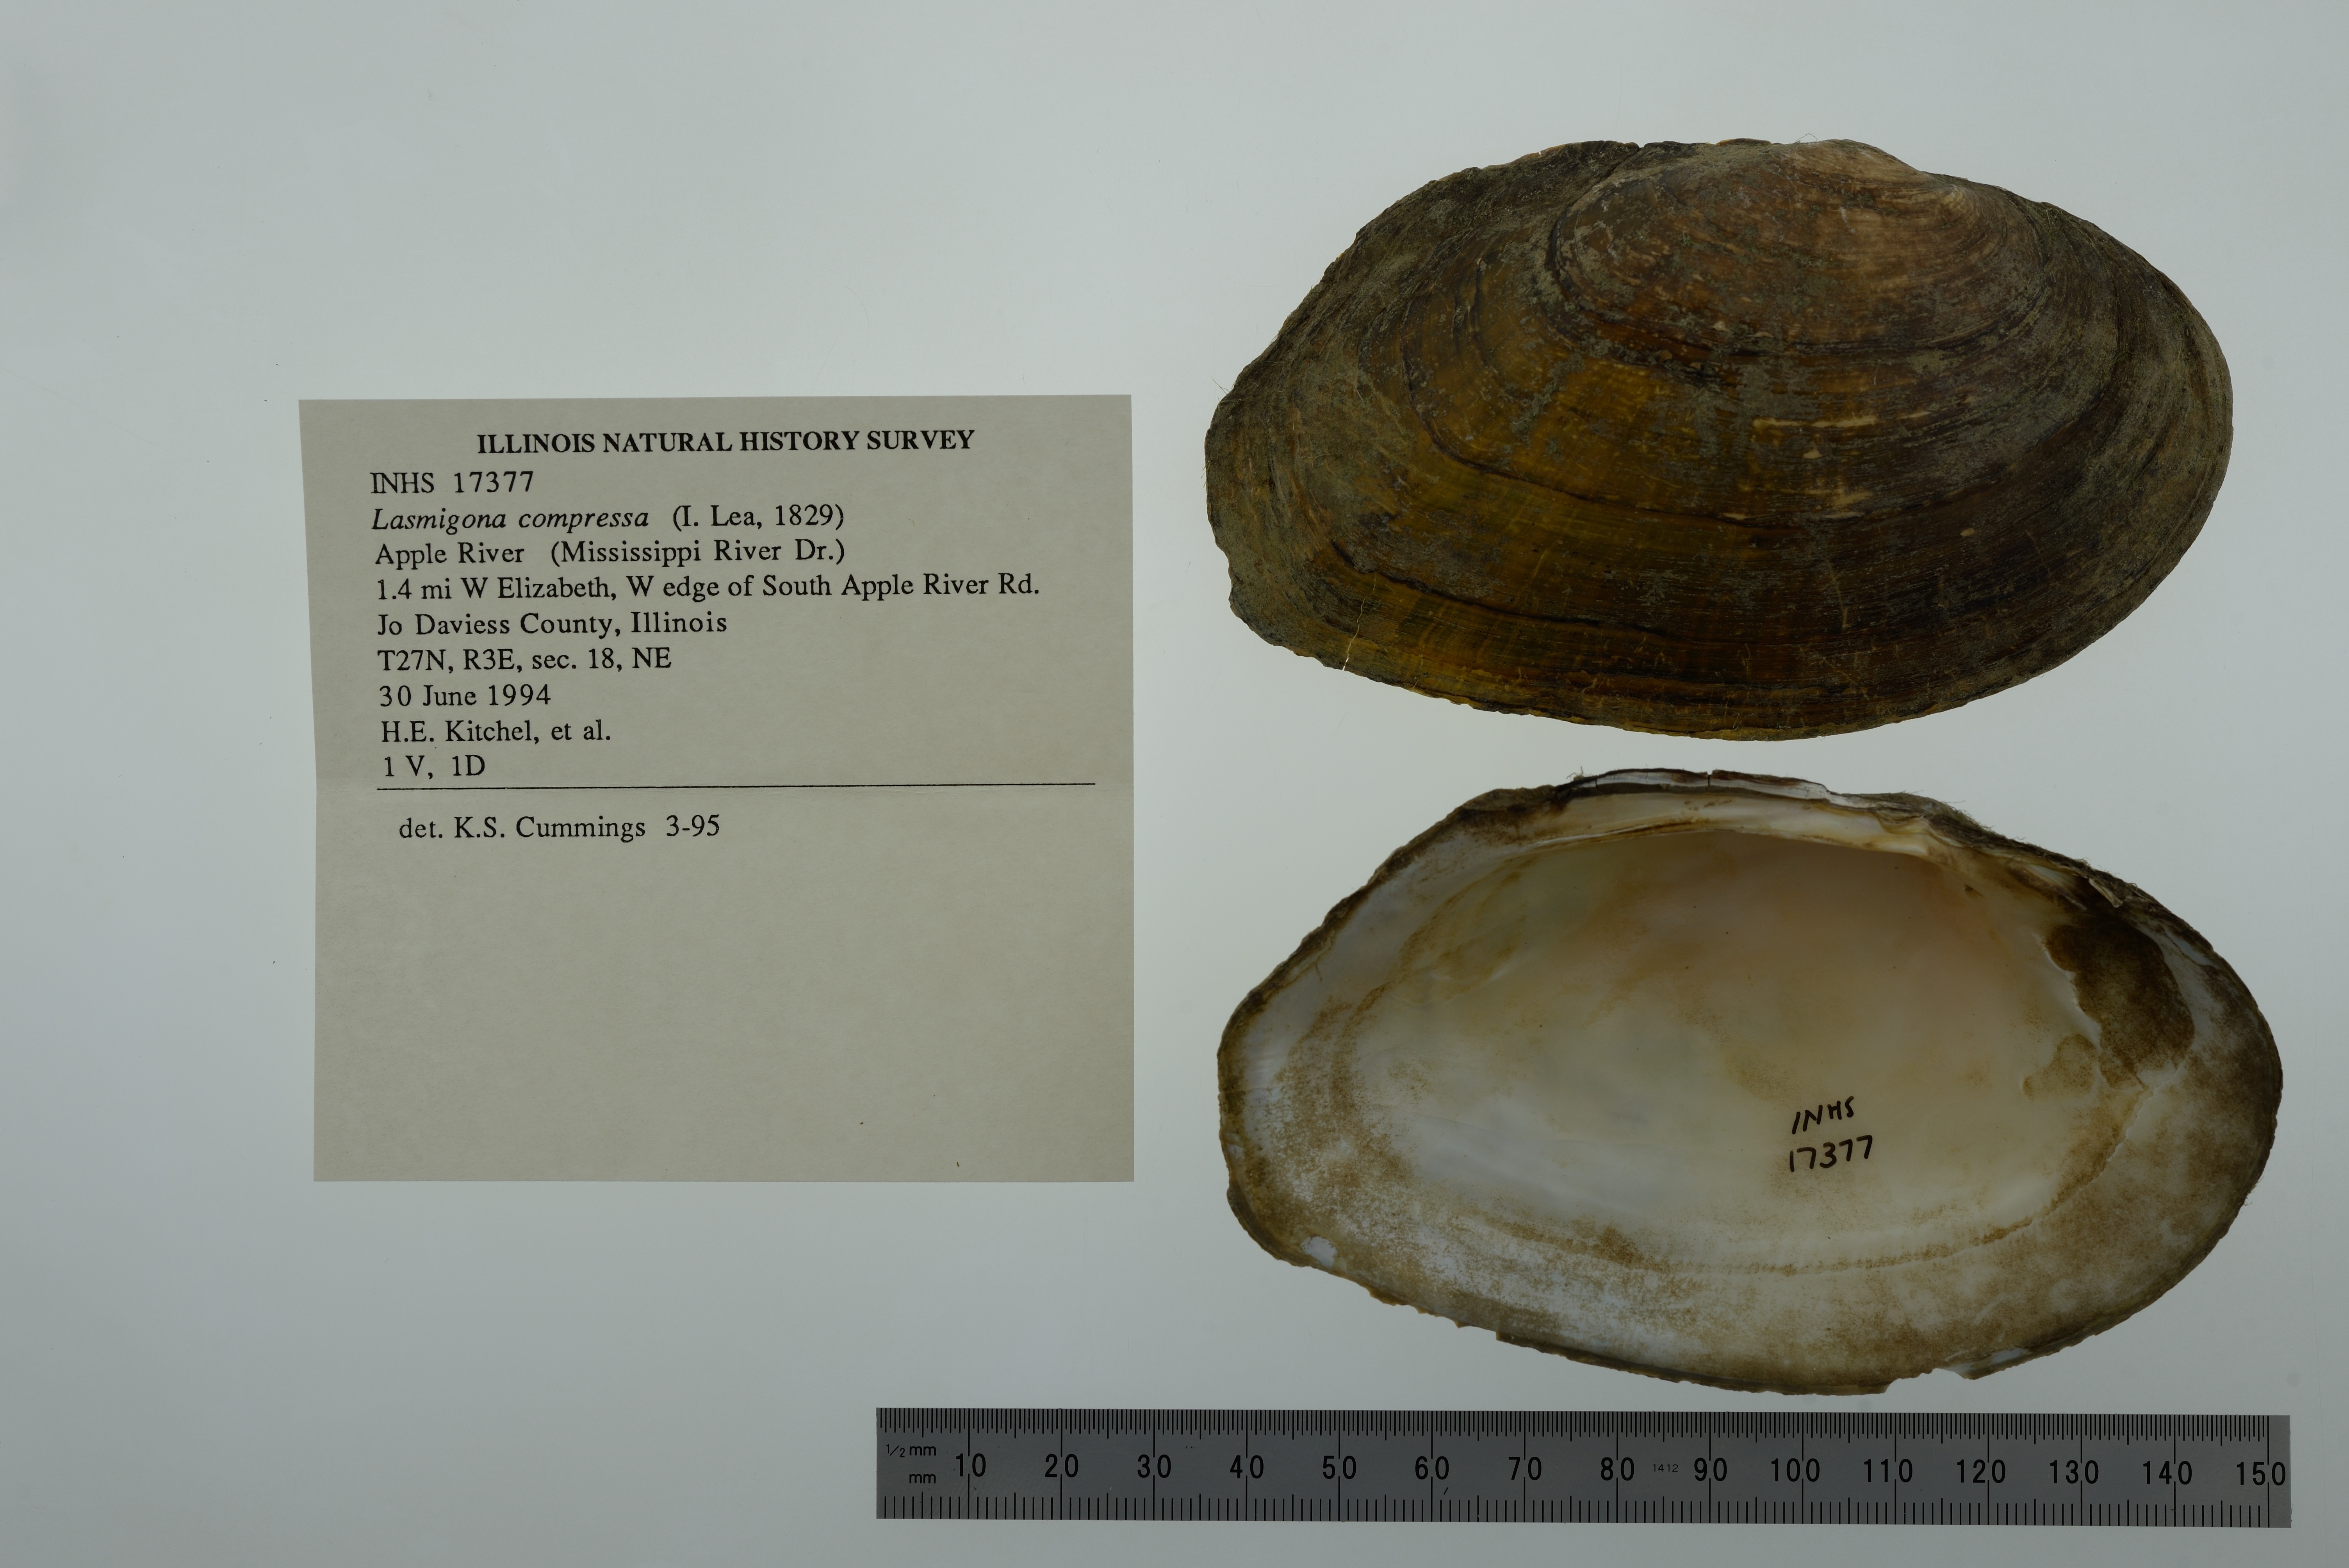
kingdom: Animalia
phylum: Mollusca
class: Bivalvia
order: Unionida
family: Unionidae
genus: Lasmigona
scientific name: Lasmigona compressa
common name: Creek heelsplitter
